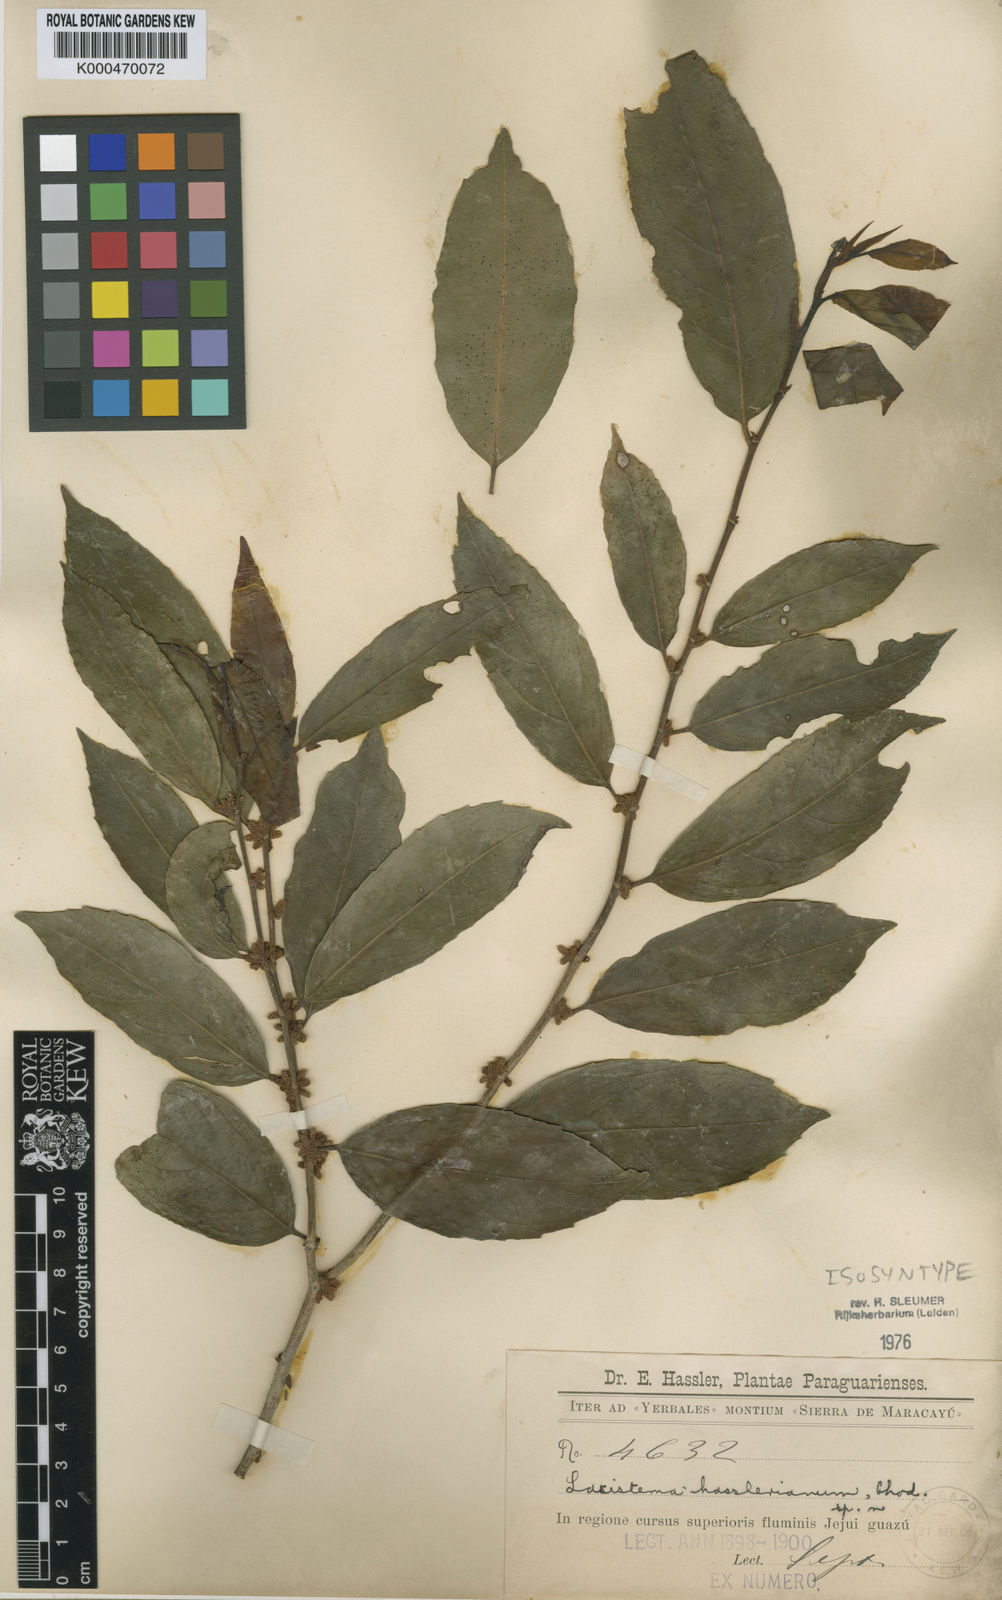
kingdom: Plantae
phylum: Tracheophyta
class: Magnoliopsida
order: Malpighiales
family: Lacistemataceae
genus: Lacistema
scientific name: Lacistema hasslerianum
